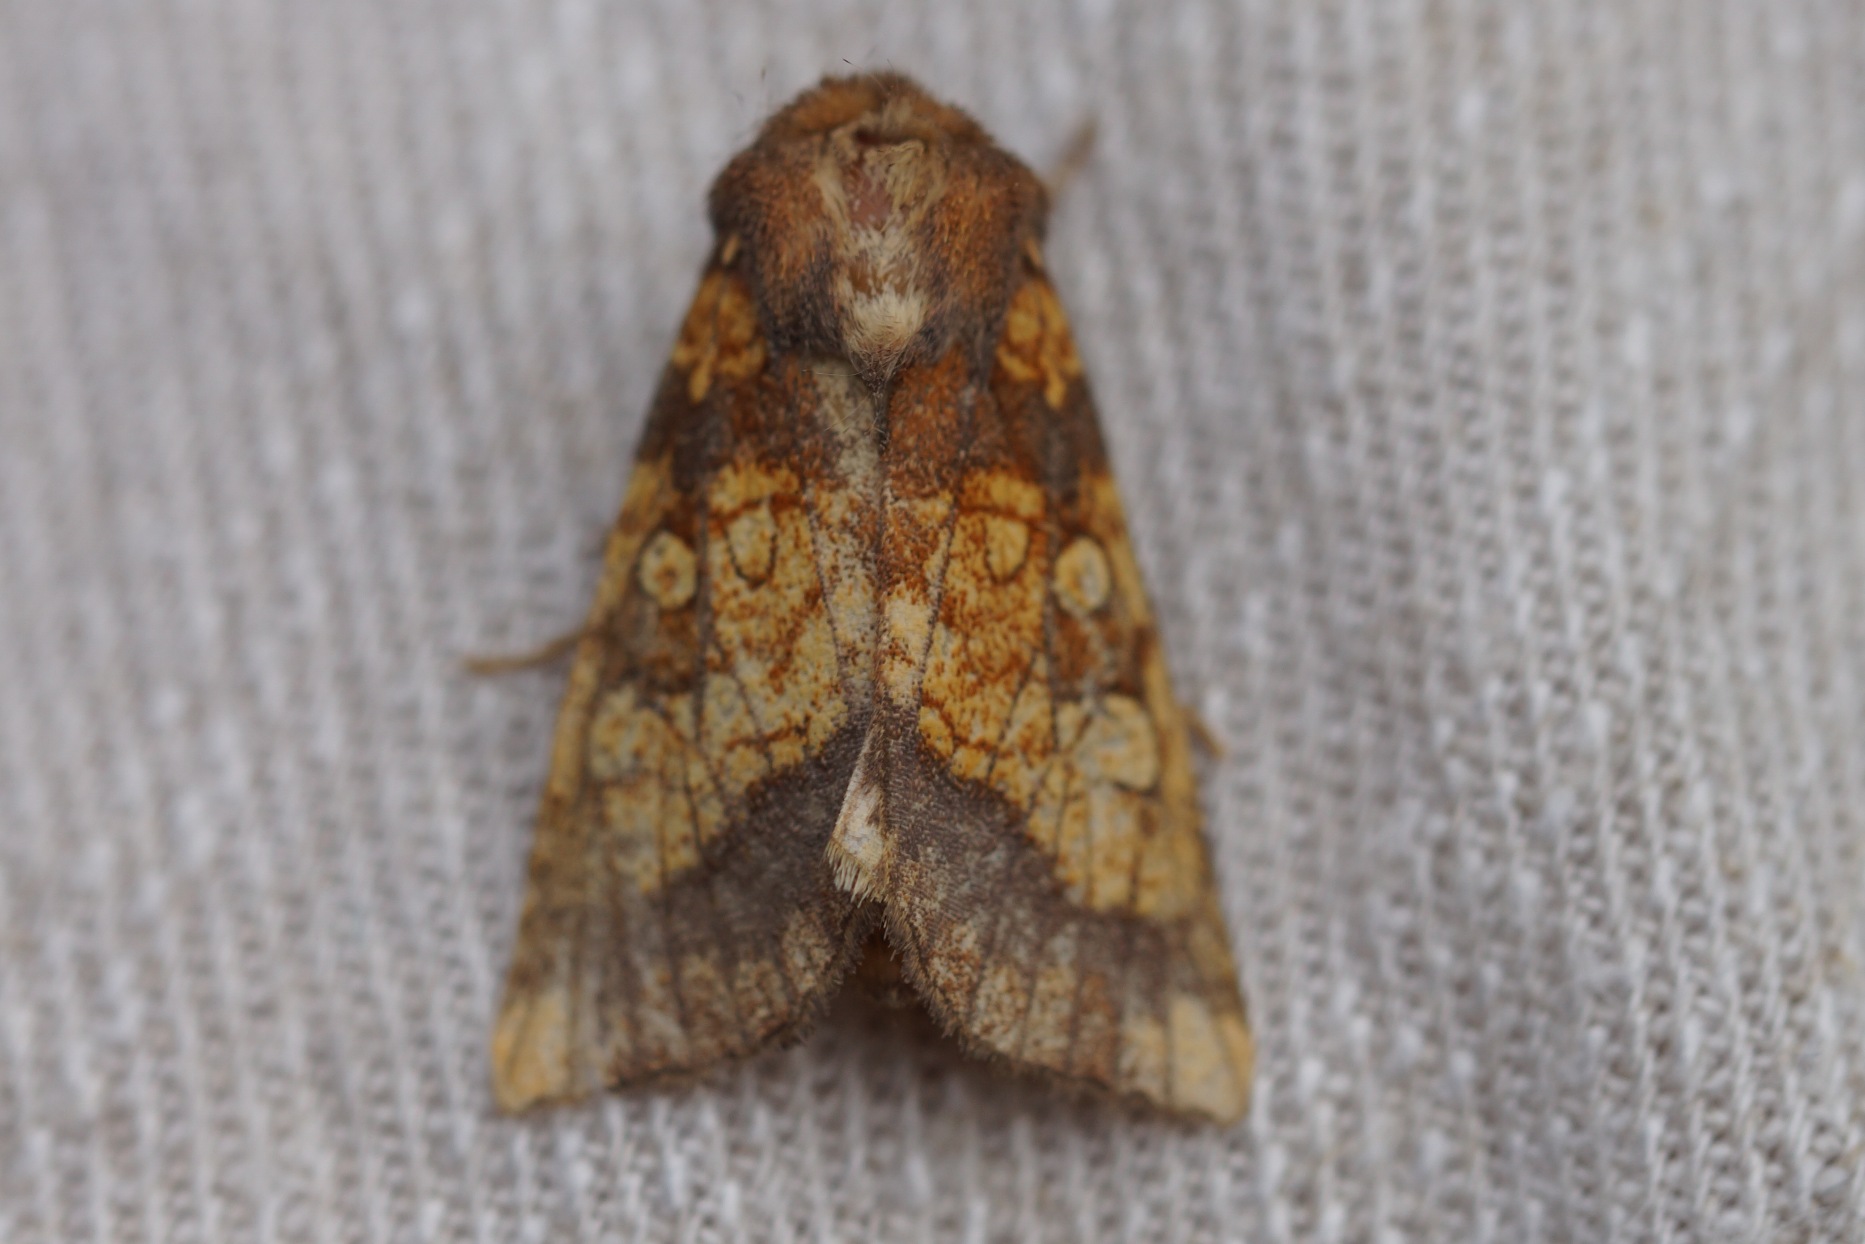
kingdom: Animalia
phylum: Arthropoda
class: Insecta
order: Lepidoptera
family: Noctuidae
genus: Gortyna
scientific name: Gortyna flavago
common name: Burreugle
